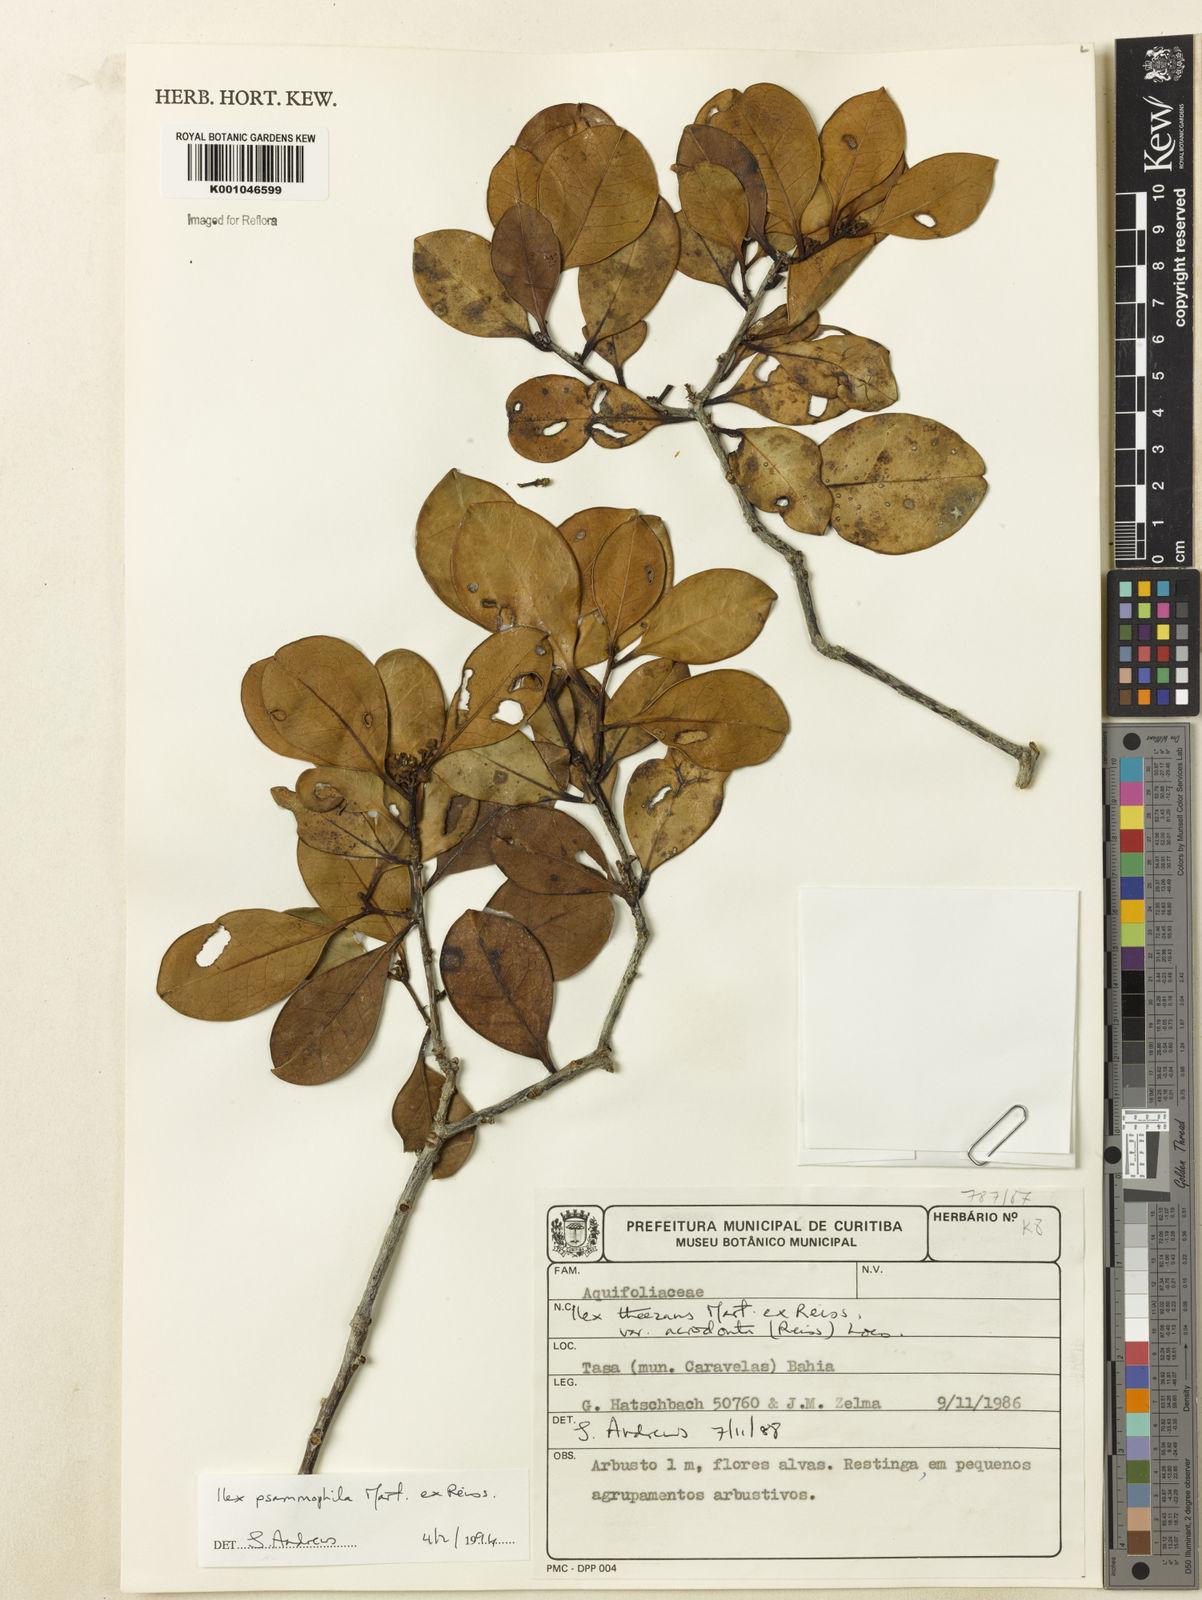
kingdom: Plantae
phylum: Tracheophyta
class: Magnoliopsida
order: Aquifoliales
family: Aquifoliaceae
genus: Ilex
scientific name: Ilex psammophila
